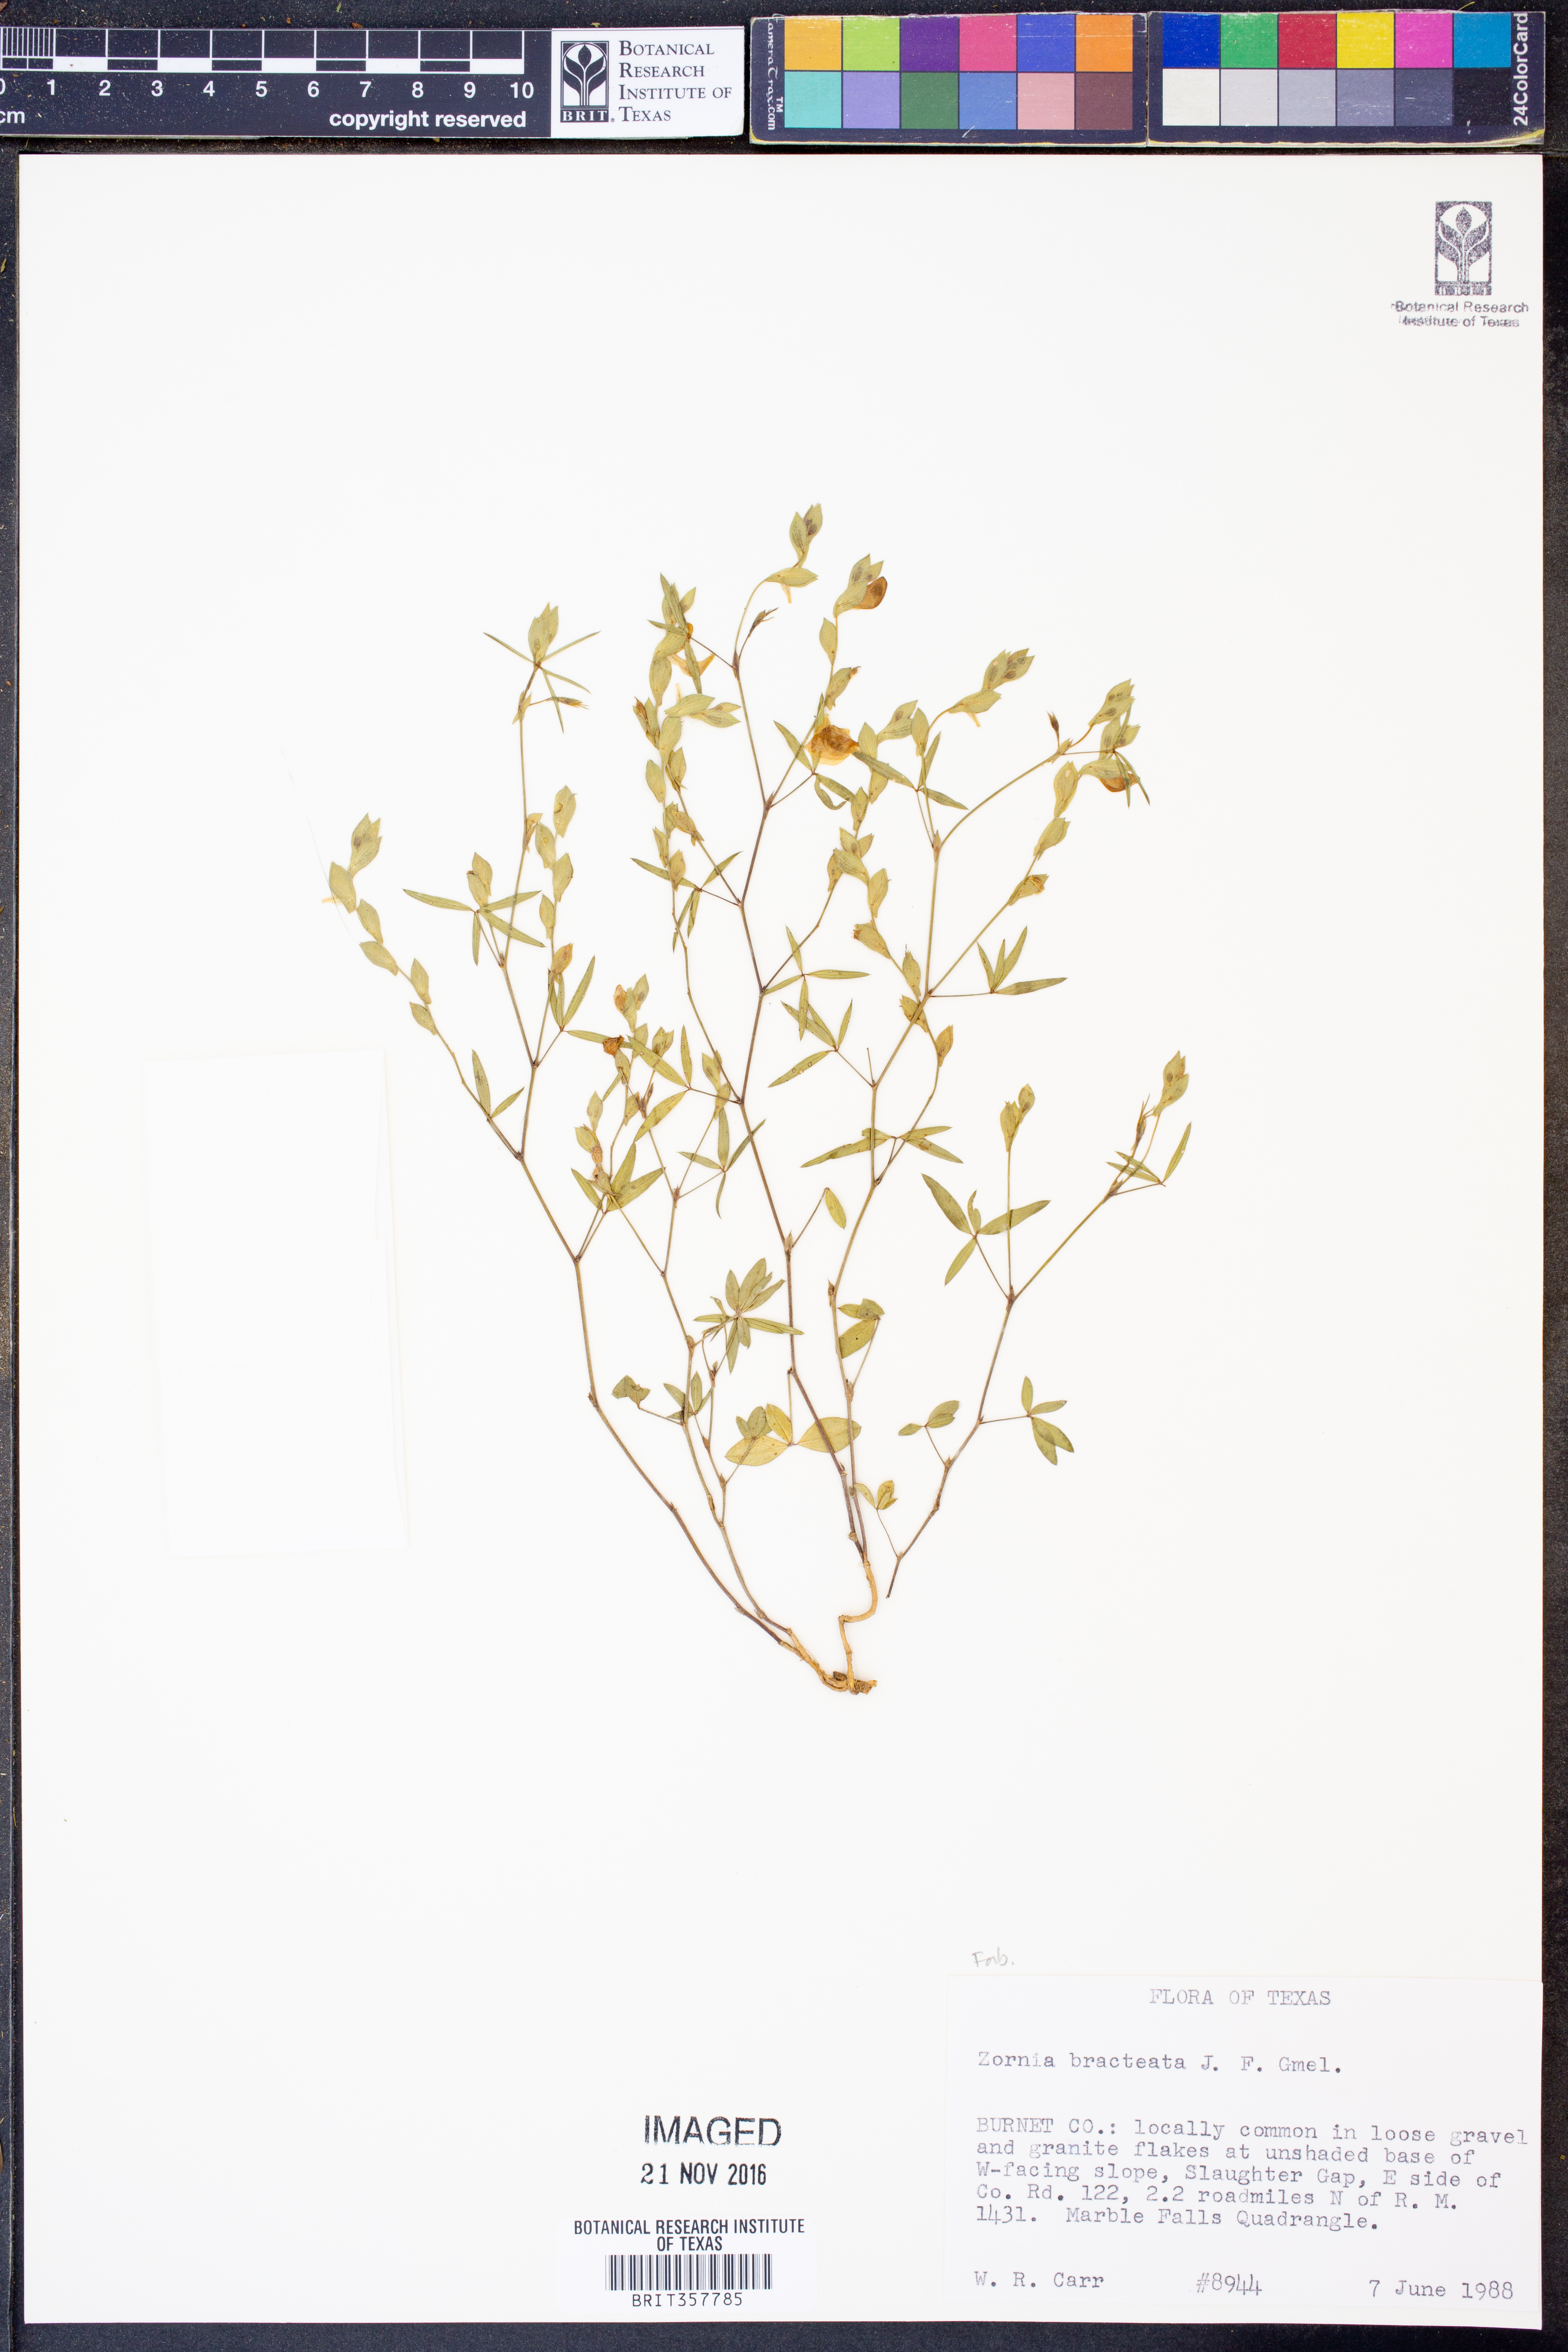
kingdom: Plantae
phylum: Tracheophyta
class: Magnoliopsida
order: Fabales
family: Fabaceae
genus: Zornia
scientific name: Zornia bracteata
